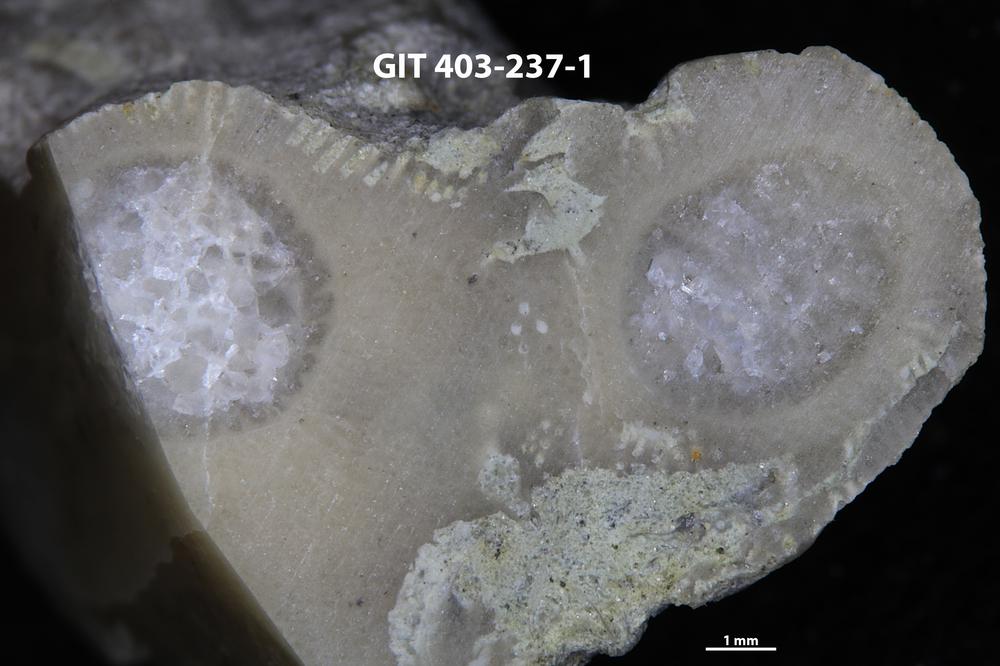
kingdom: Animalia
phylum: Cnidaria
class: Anthozoa
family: Tryplasmatidae
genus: Tryplasma
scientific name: Tryplasma
